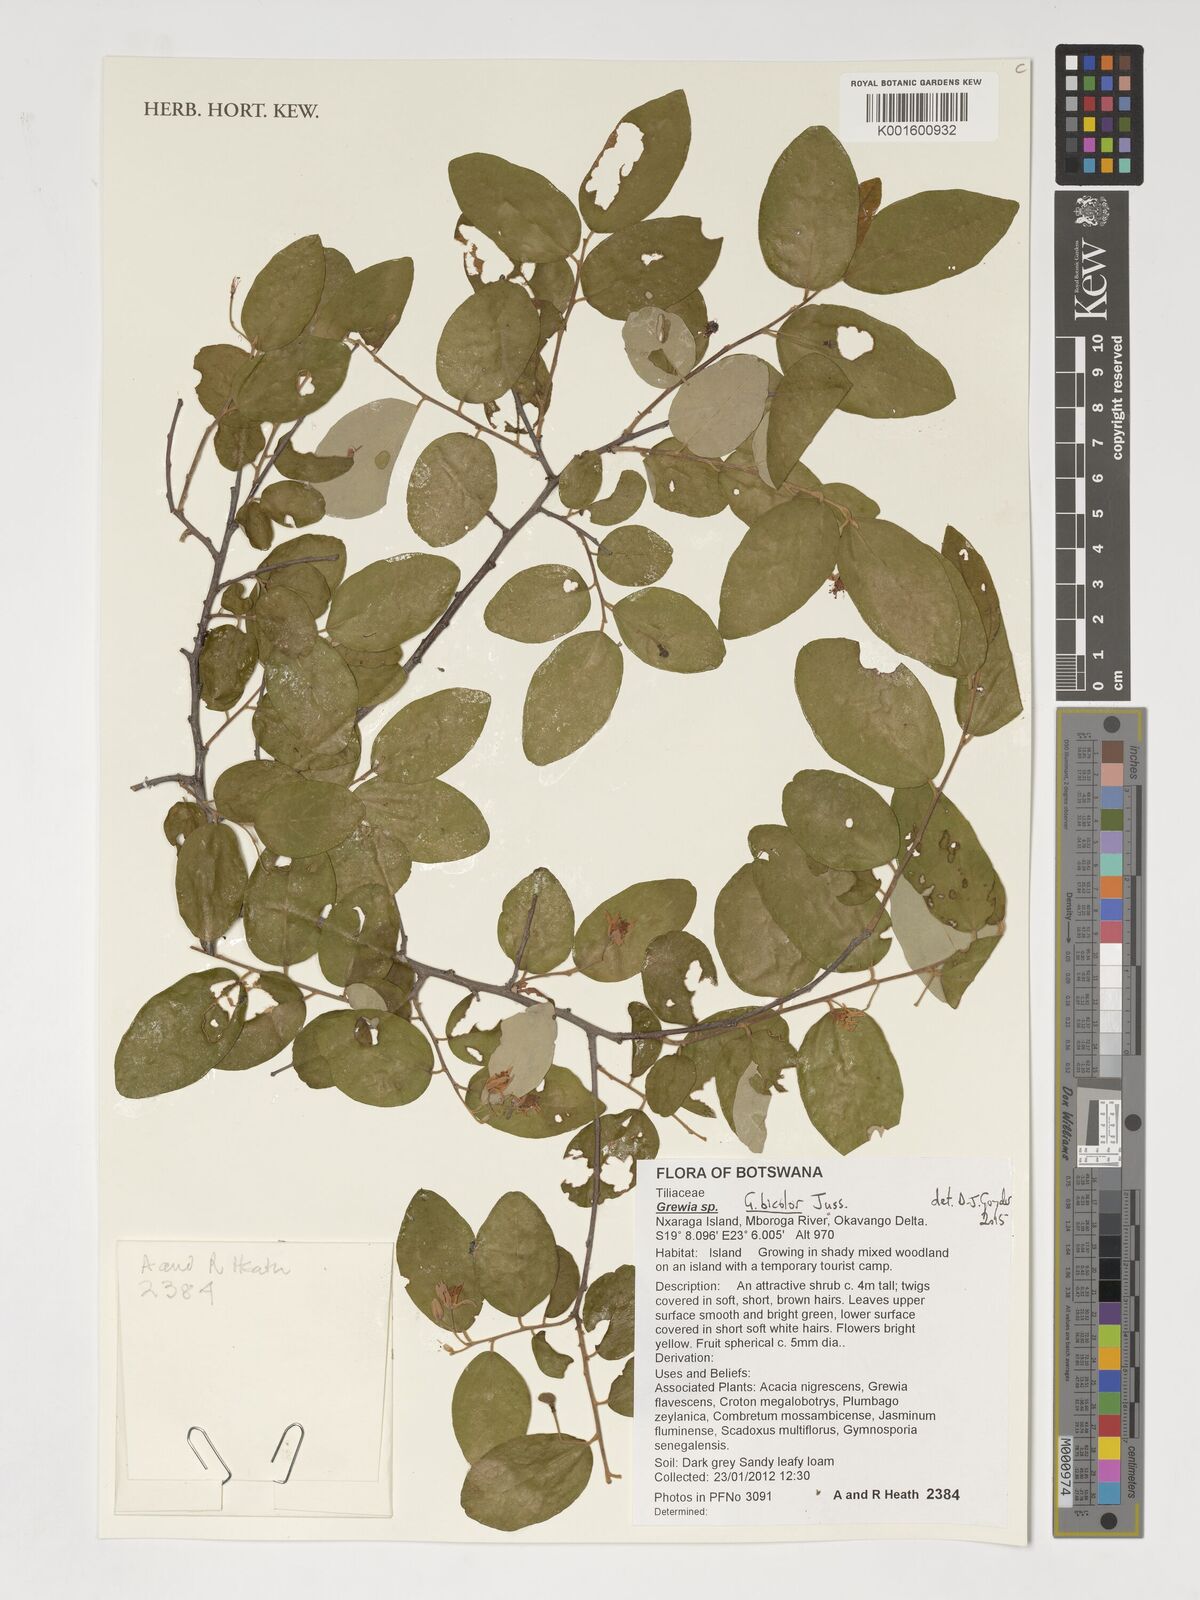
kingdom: Plantae
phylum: Tracheophyta
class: Magnoliopsida
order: Malvales
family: Malvaceae
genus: Grewia
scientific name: Grewia bicolor
